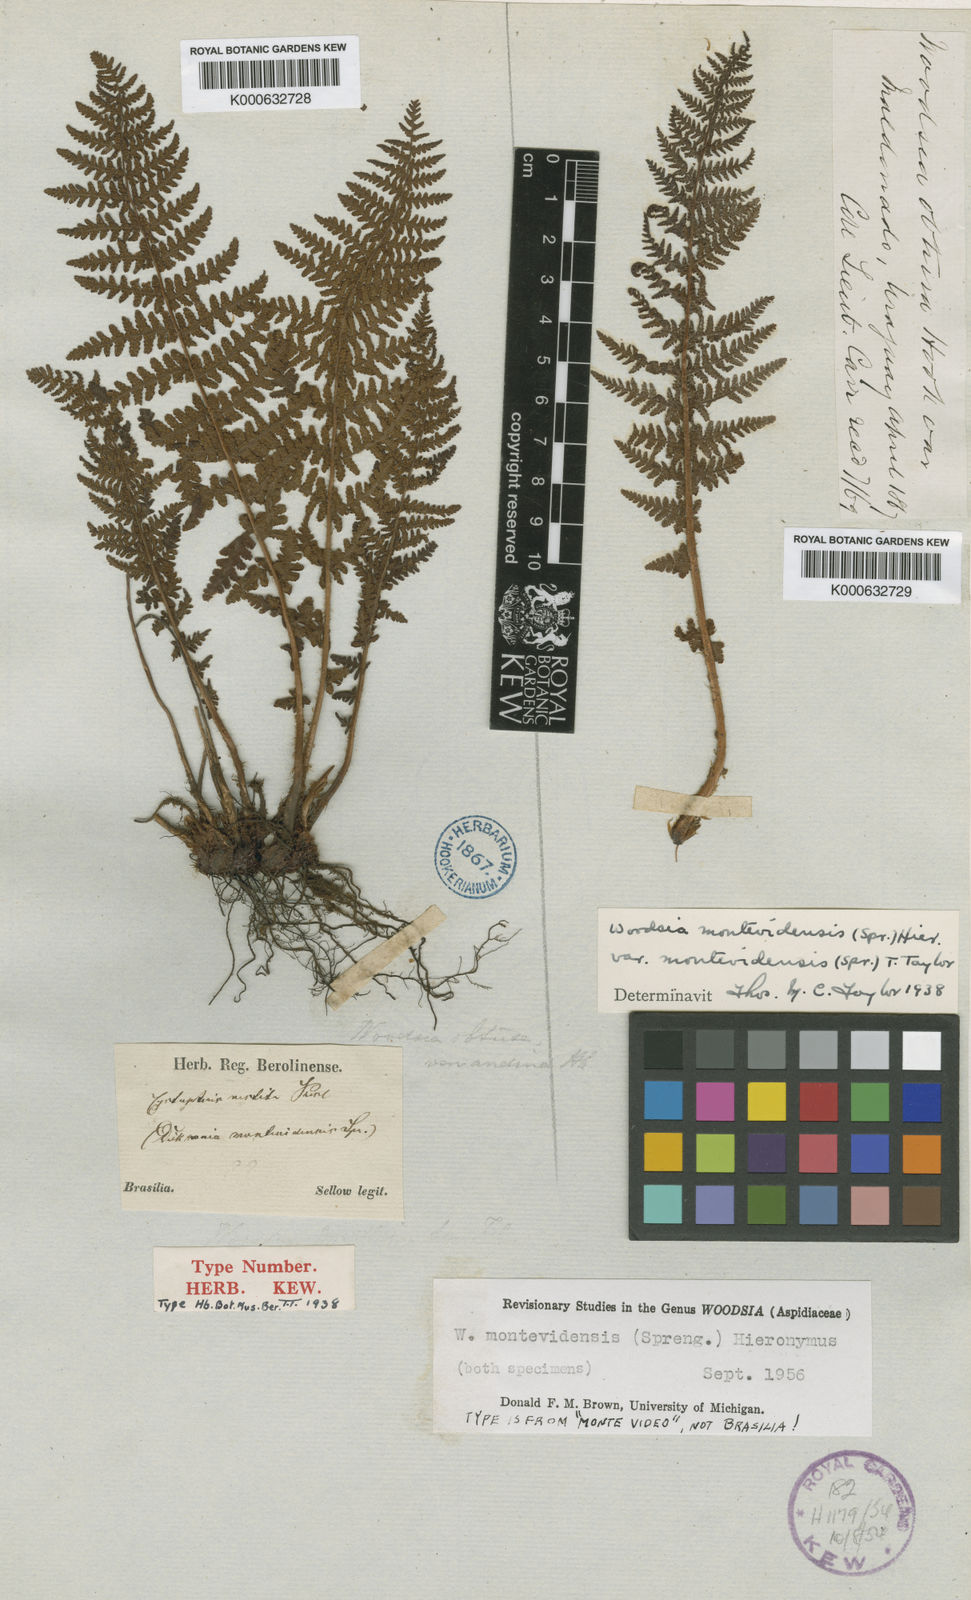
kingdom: Plantae
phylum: Tracheophyta
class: Polypodiopsida
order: Polypodiales
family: Woodsiaceae
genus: Physematium
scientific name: Physematium montevidense
